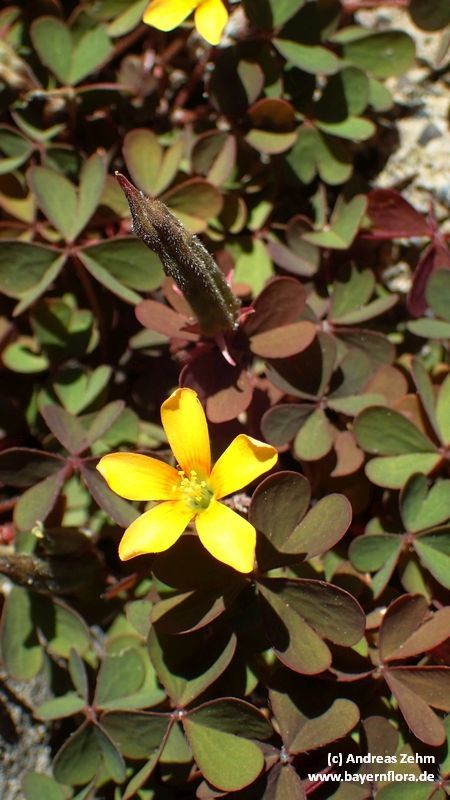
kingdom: Plantae
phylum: Tracheophyta
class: Magnoliopsida
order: Oxalidales
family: Oxalidaceae
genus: Oxalis
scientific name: Oxalis corniculata
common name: Procumbent yellow-sorrel
